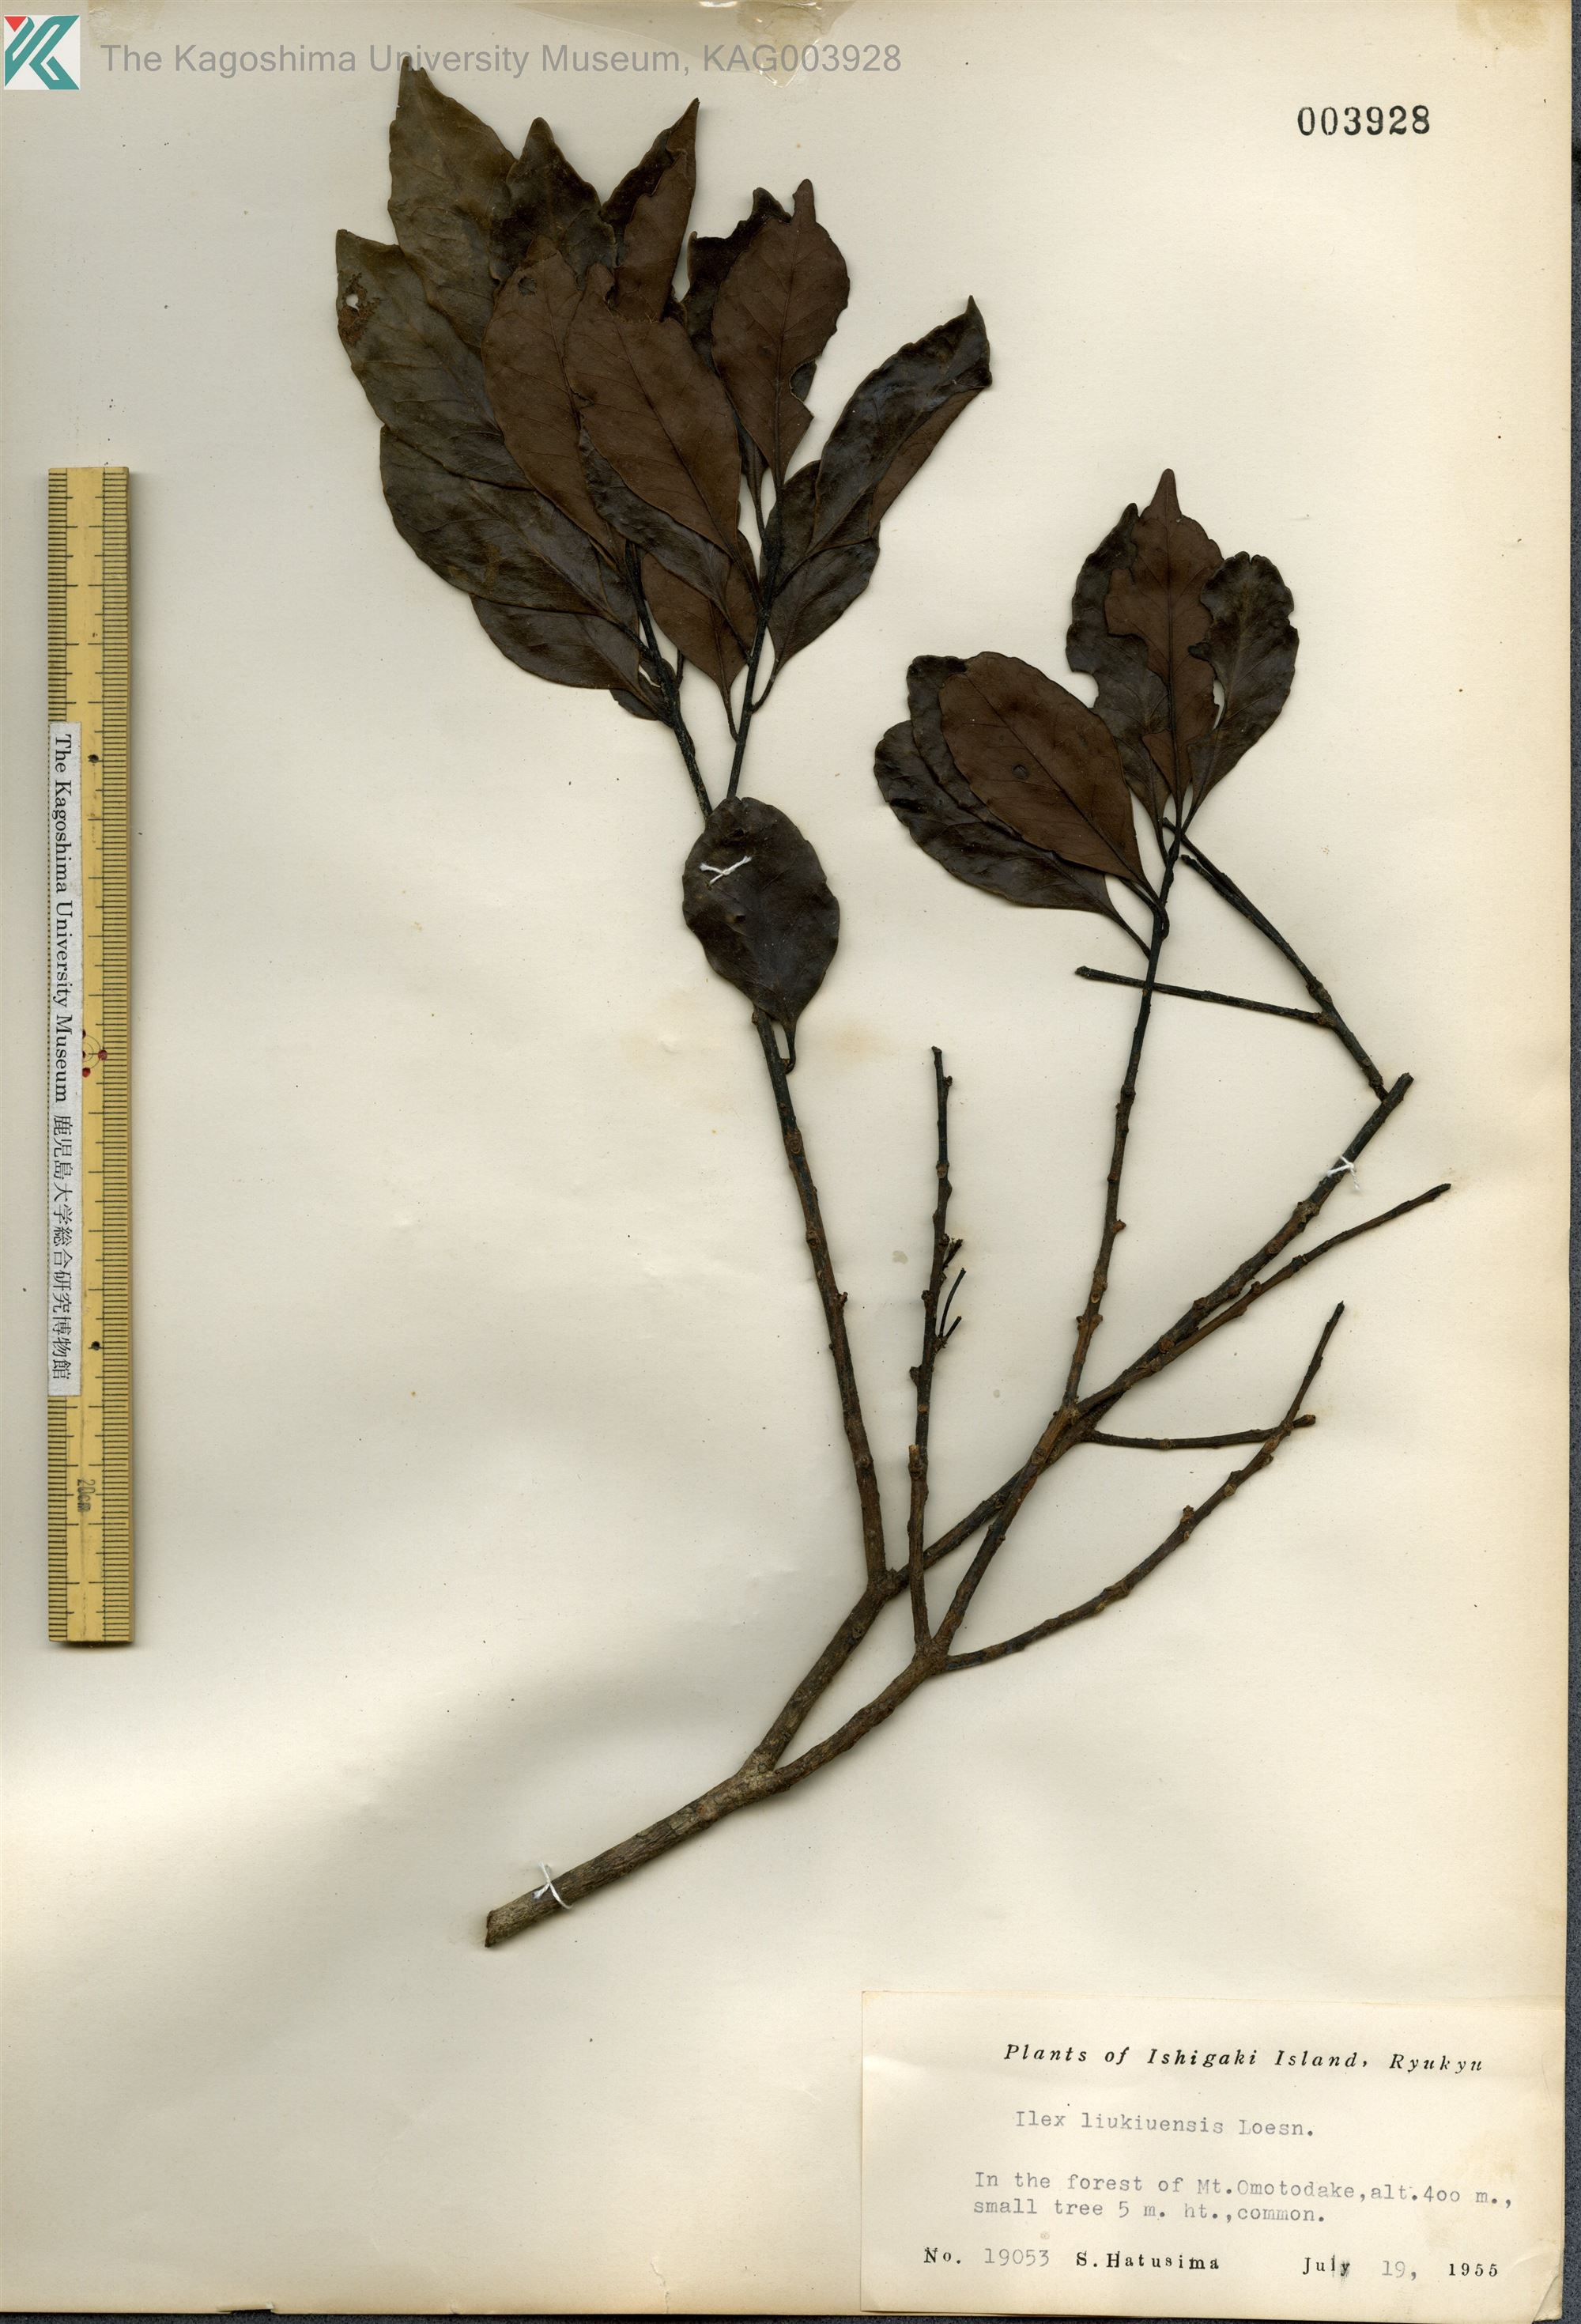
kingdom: Plantae
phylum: Tracheophyta
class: Magnoliopsida
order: Aquifoliales
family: Aquifoliaceae
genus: Ilex
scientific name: Ilex liukiuensis
